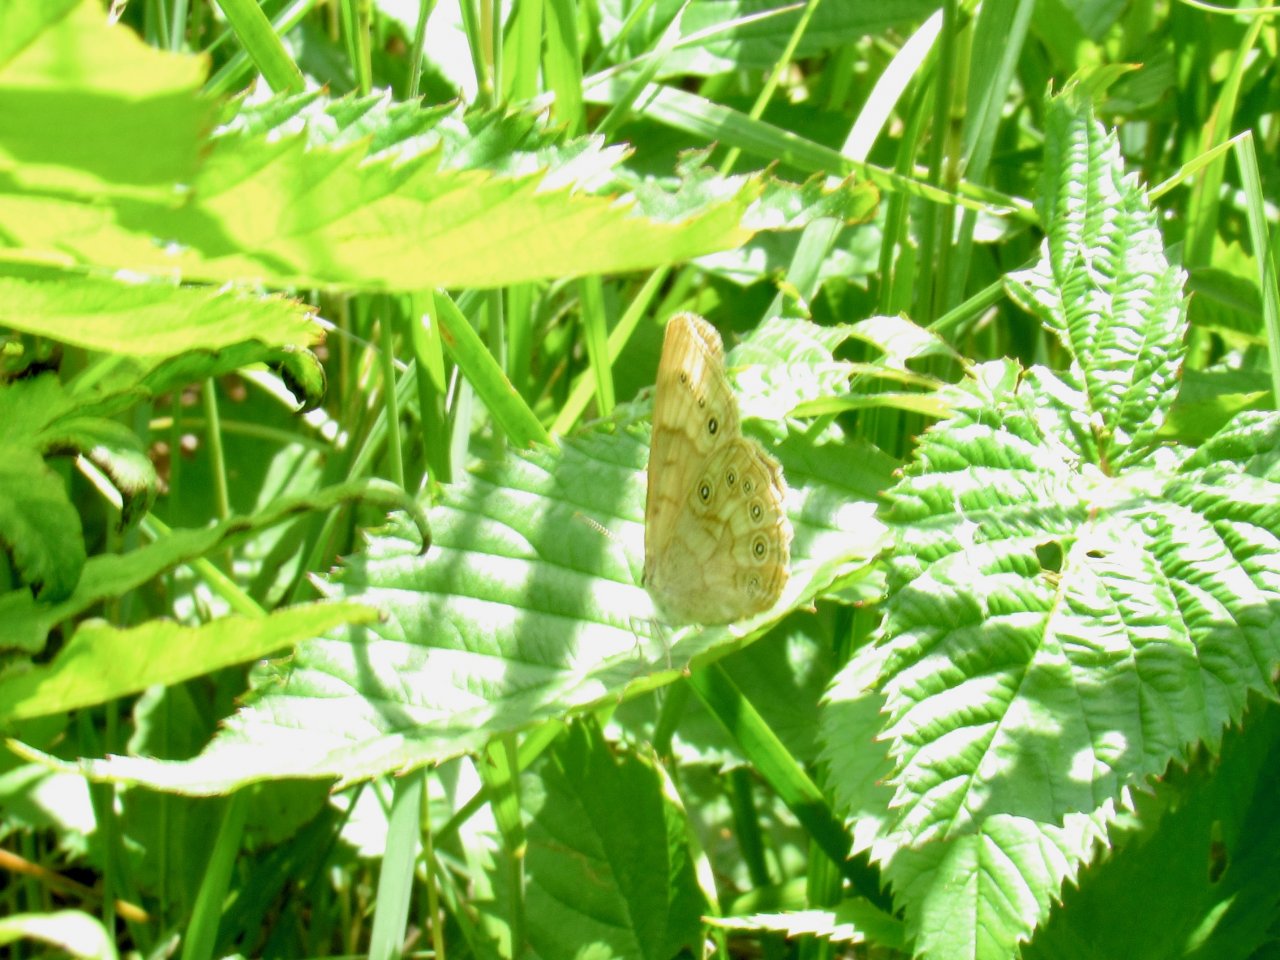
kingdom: Animalia
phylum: Arthropoda
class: Insecta
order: Lepidoptera
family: Nymphalidae
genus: Lethe
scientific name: Lethe eurydice
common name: Eyed Brown
